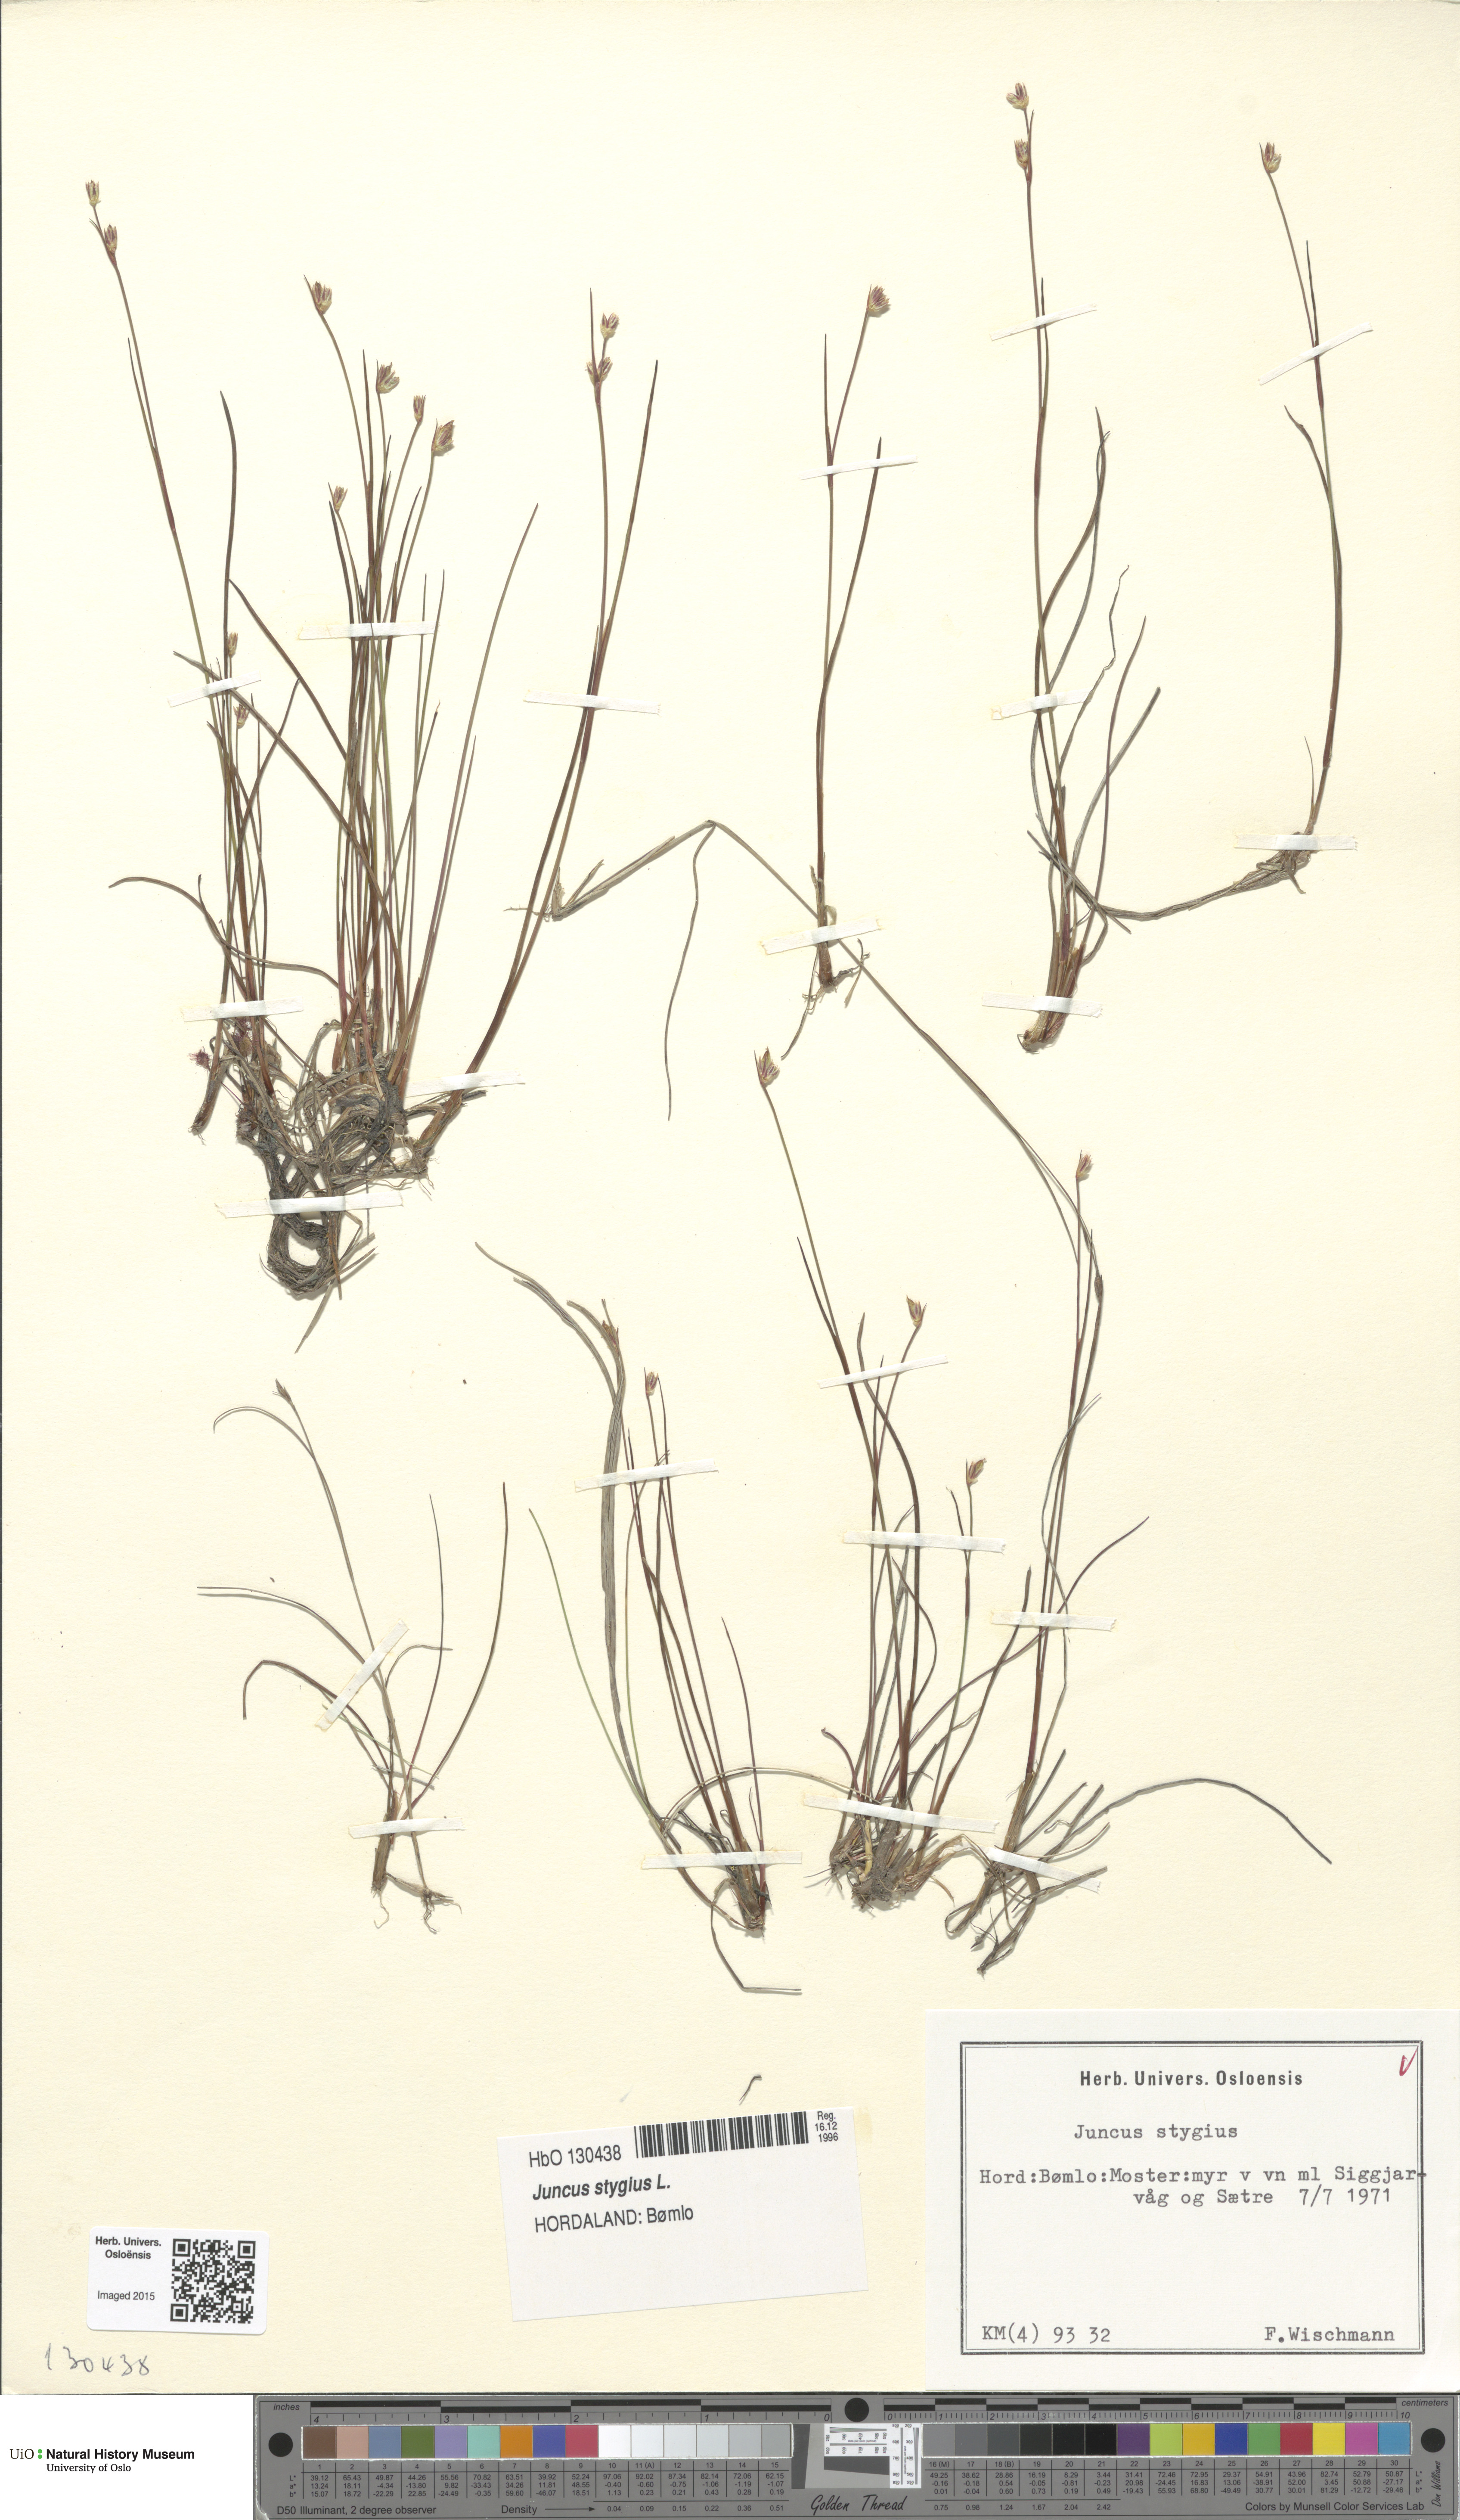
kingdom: Plantae
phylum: Tracheophyta
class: Liliopsida
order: Poales
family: Juncaceae
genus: Juncus
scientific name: Juncus stygius
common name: Bog rush
